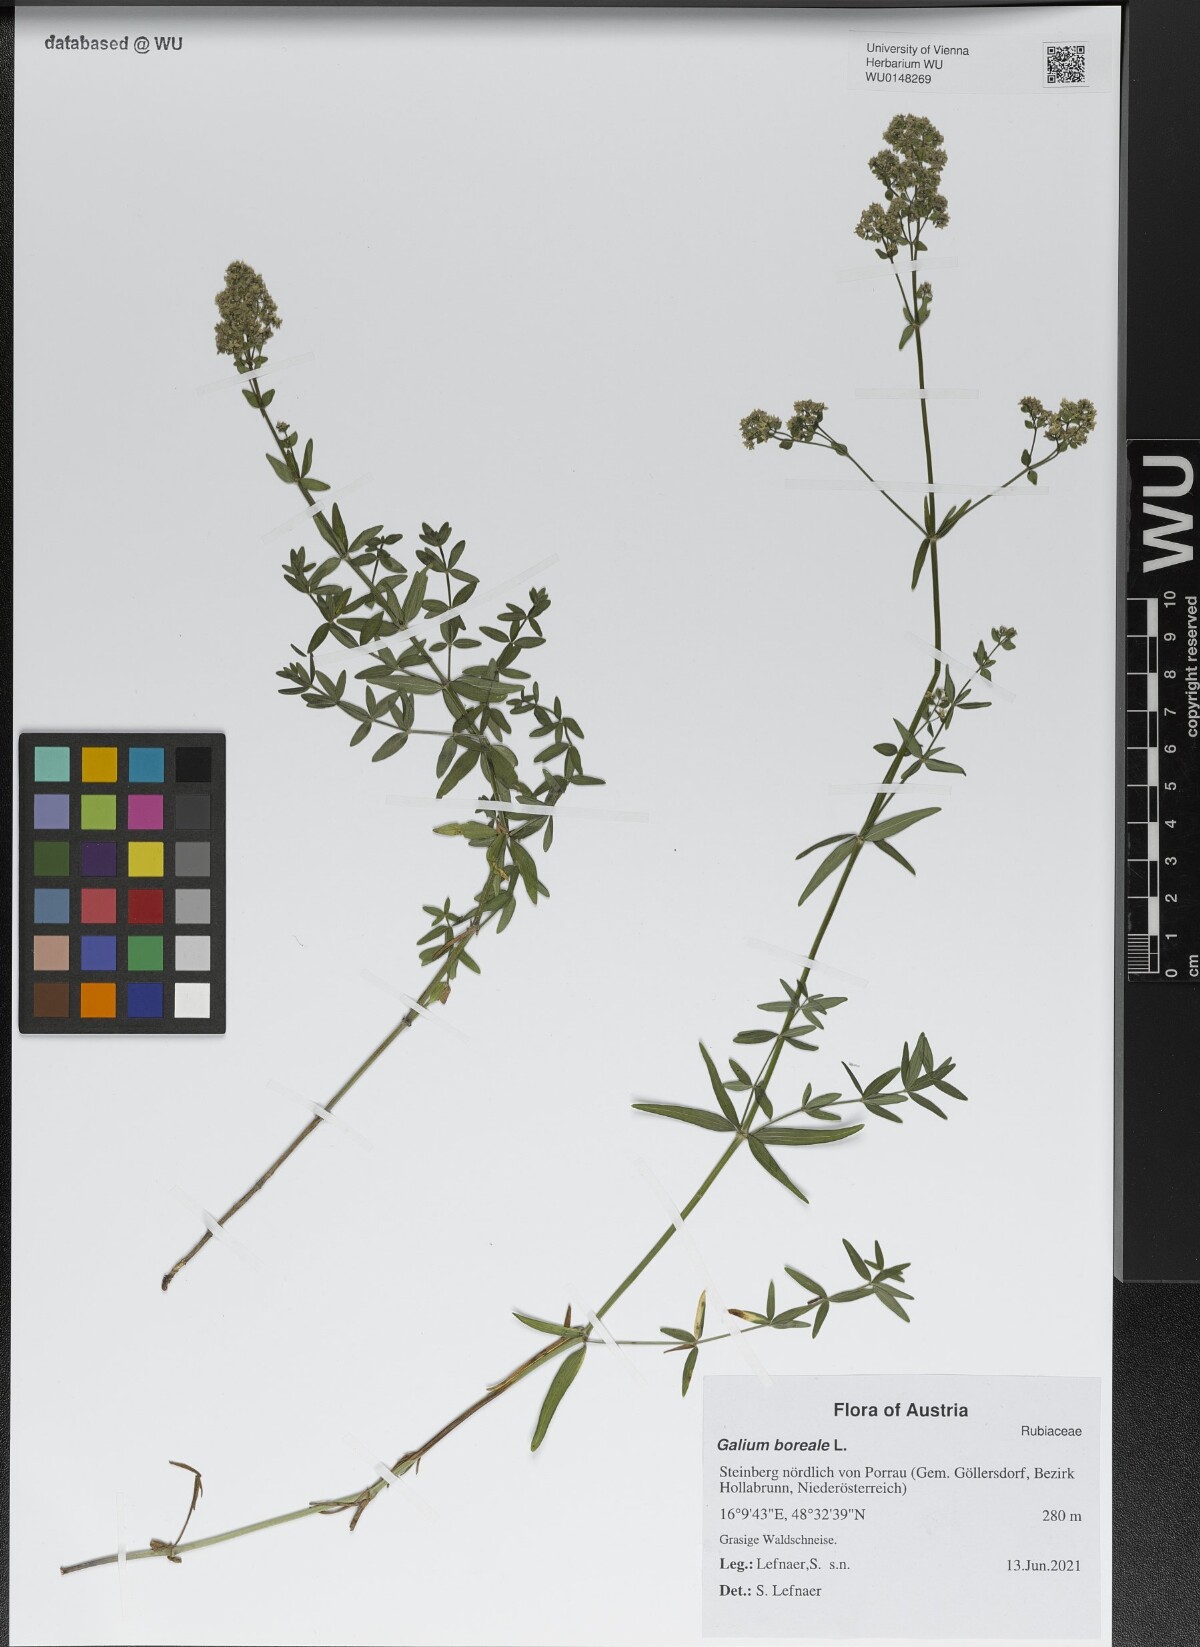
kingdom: Plantae
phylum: Tracheophyta
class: Magnoliopsida
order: Gentianales
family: Rubiaceae
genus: Galium
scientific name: Galium boreale
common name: Northern bedstraw
